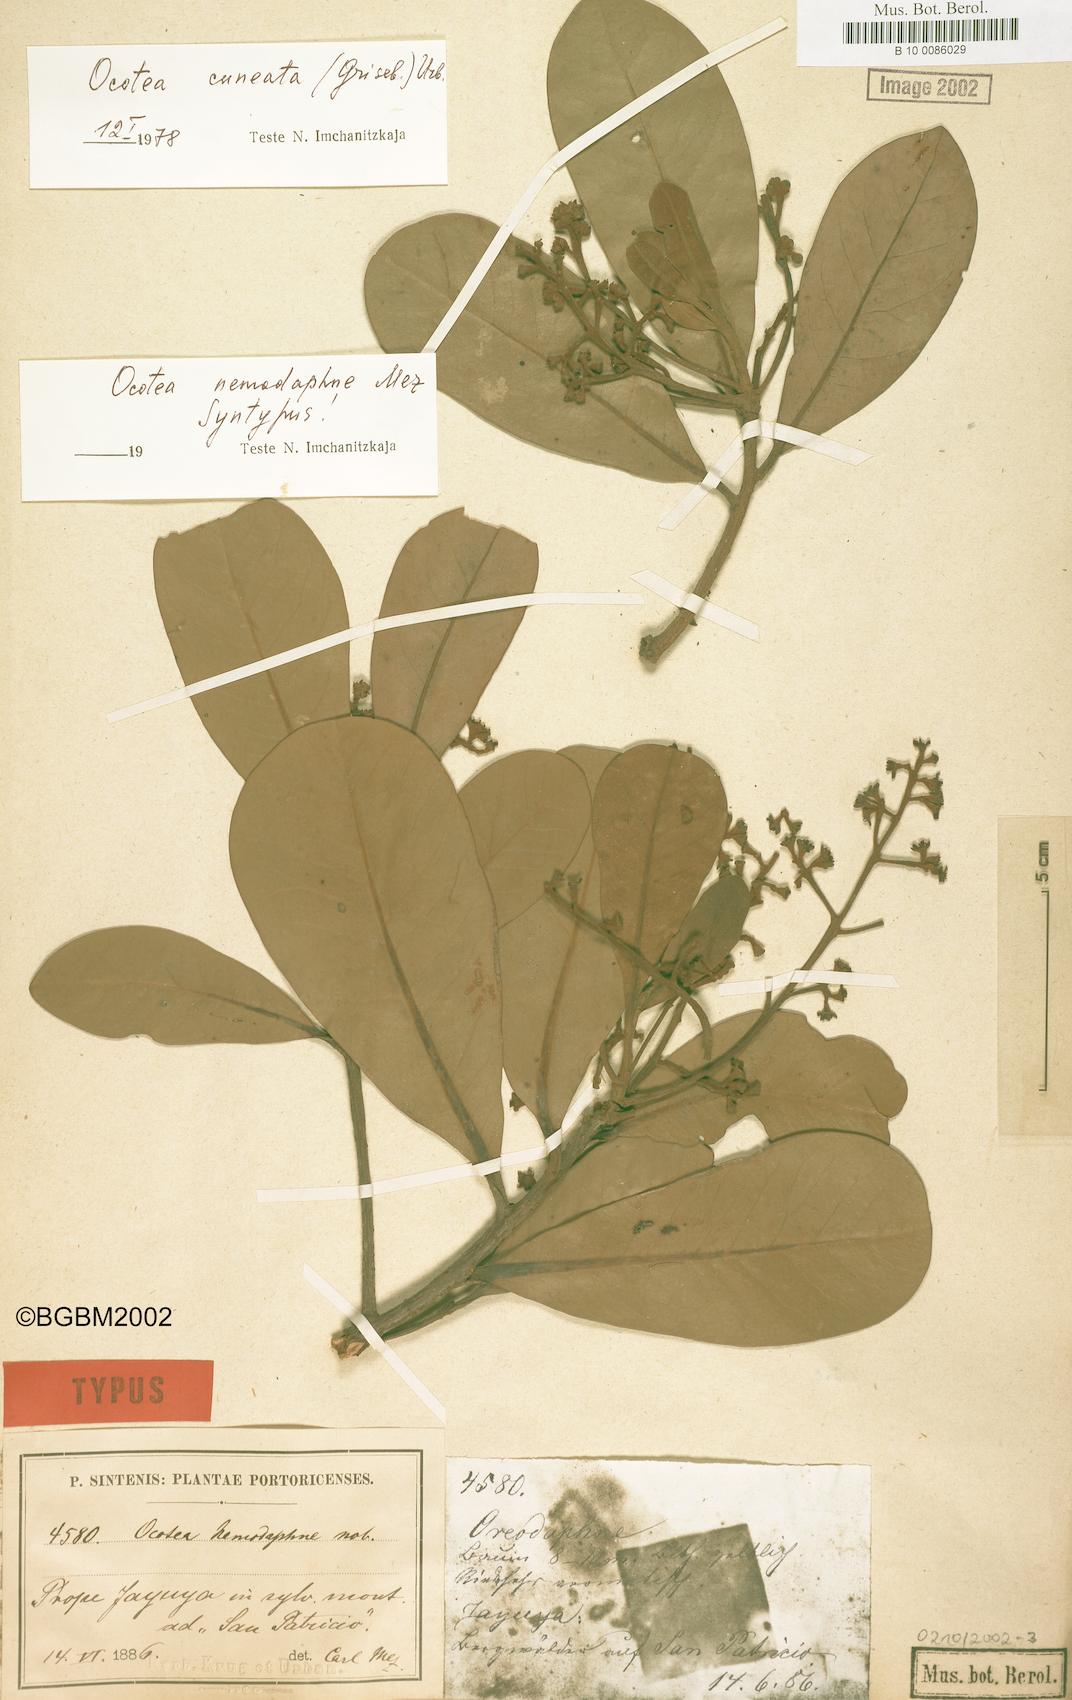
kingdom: Plantae
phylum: Tracheophyta
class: Magnoliopsida
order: Laurales
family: Lauraceae
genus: Ocotea
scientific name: Ocotea cuneata
